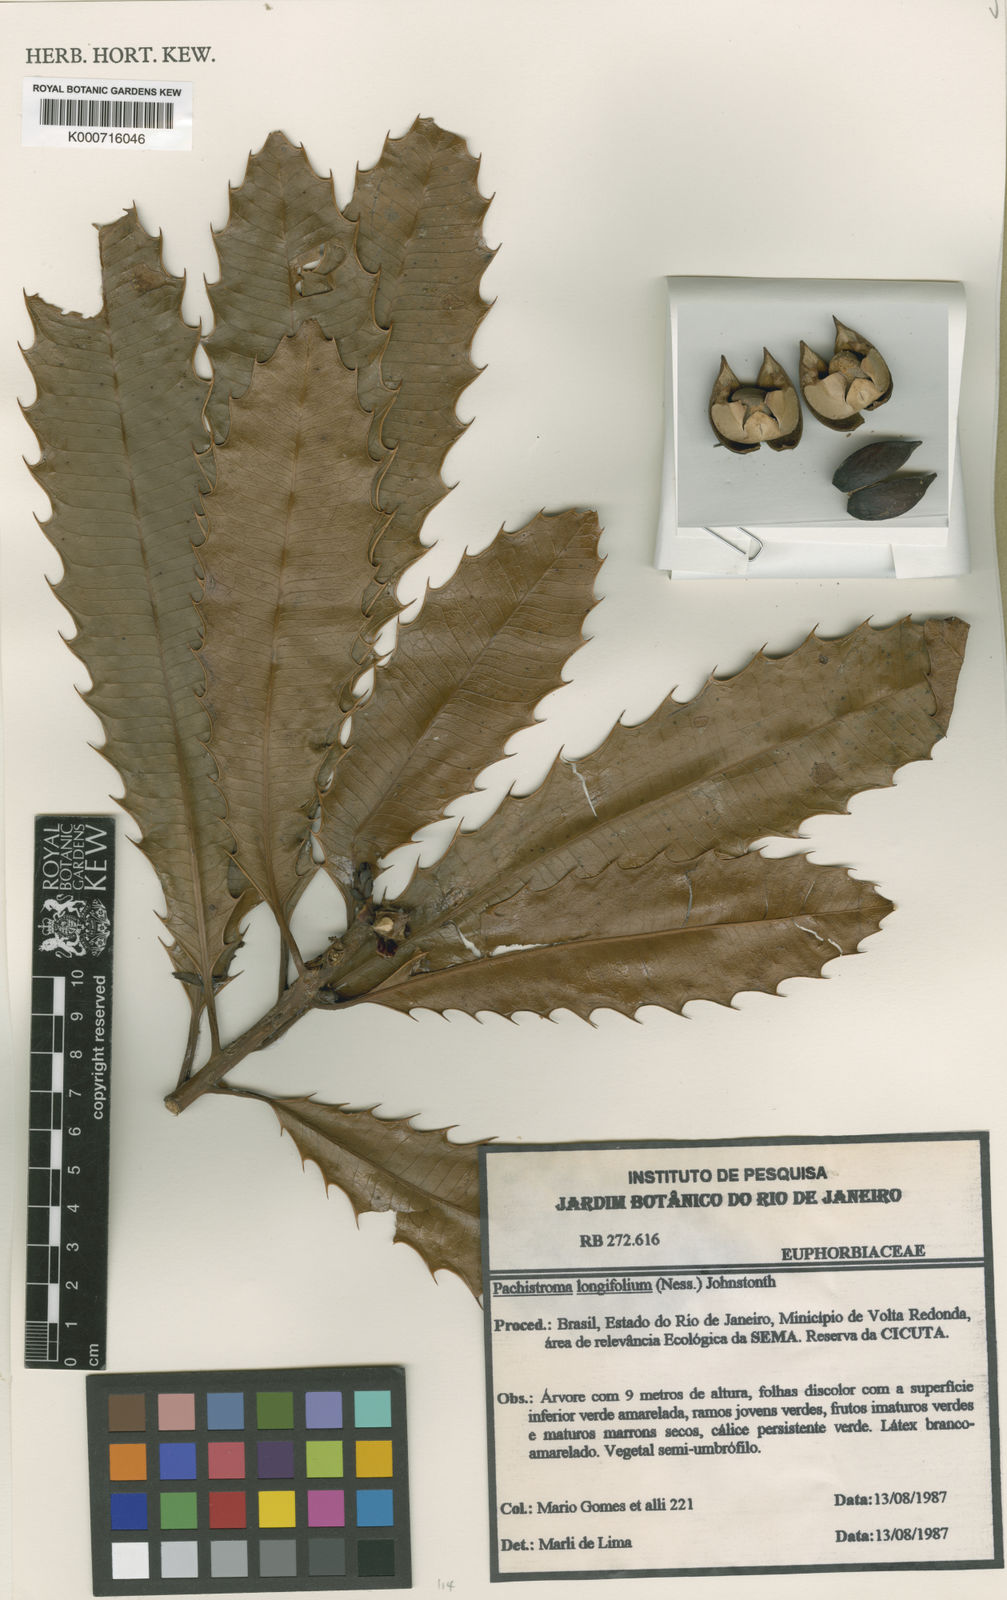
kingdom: Plantae
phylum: Tracheophyta
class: Magnoliopsida
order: Malpighiales
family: Euphorbiaceae
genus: Pachystroma
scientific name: Pachystroma longifolium
